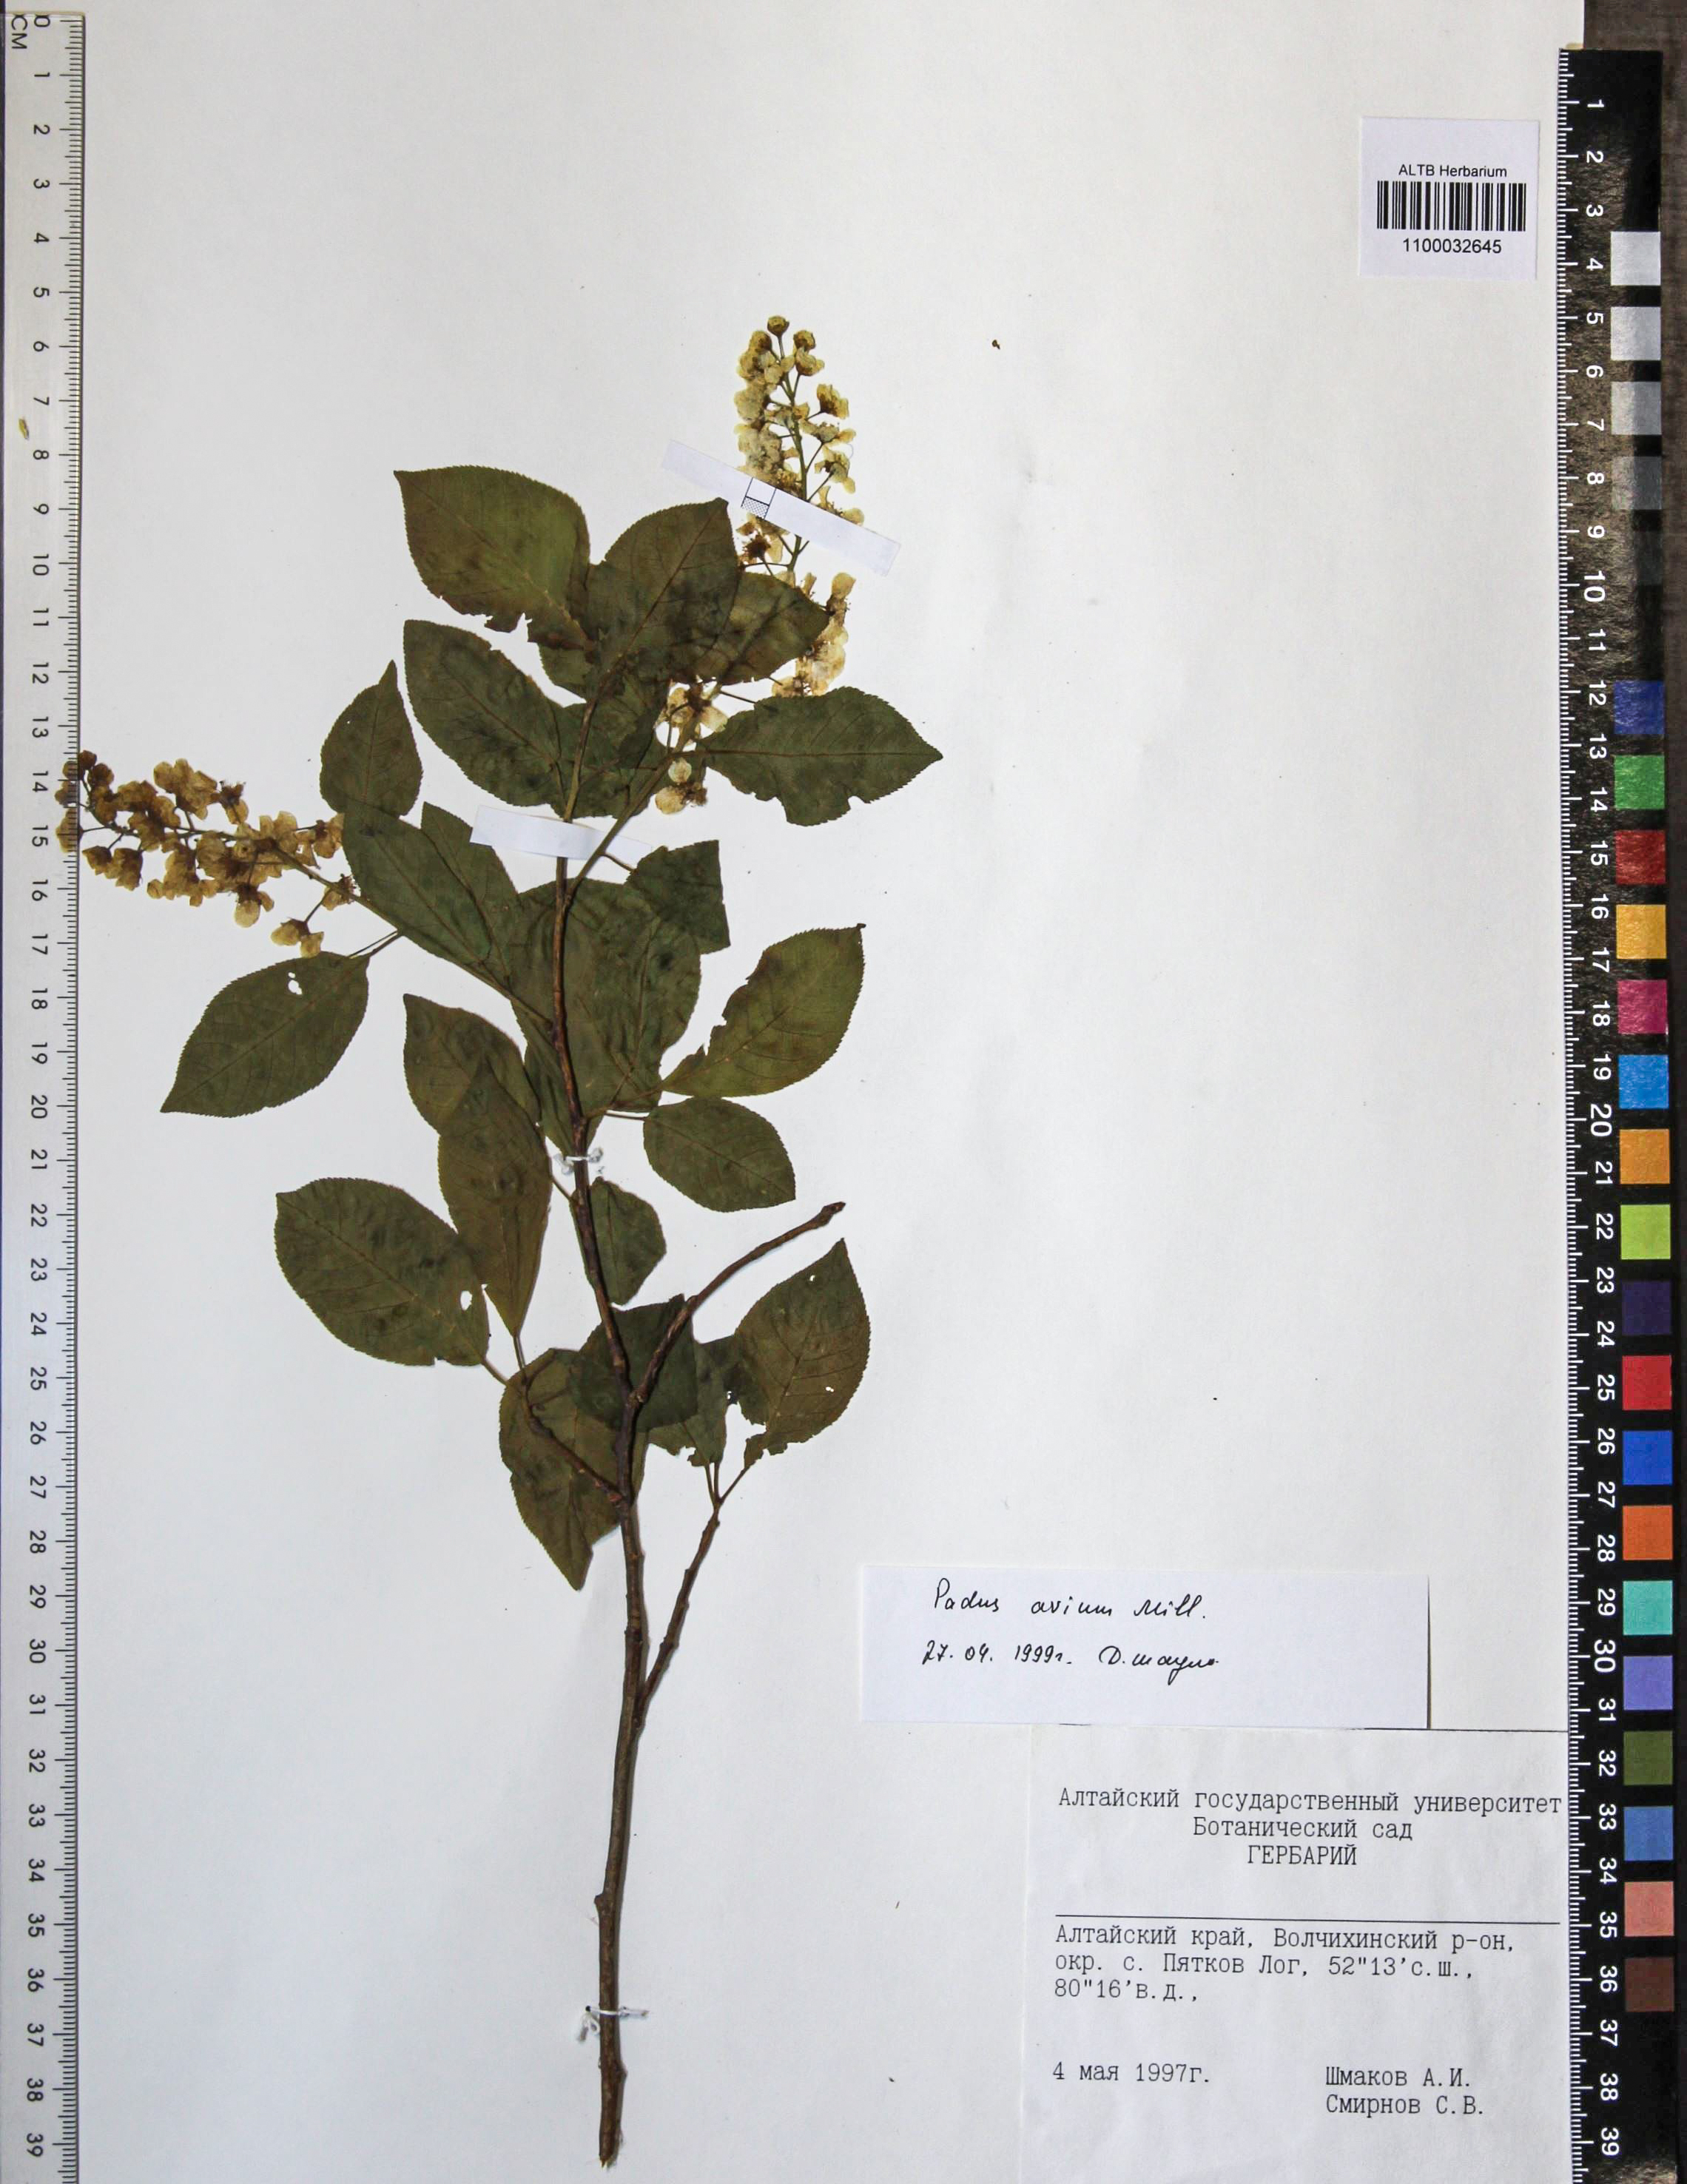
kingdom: Plantae
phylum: Tracheophyta
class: Magnoliopsida
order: Rosales
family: Rosaceae
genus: Prunus
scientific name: Prunus padus
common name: Bird cherry
